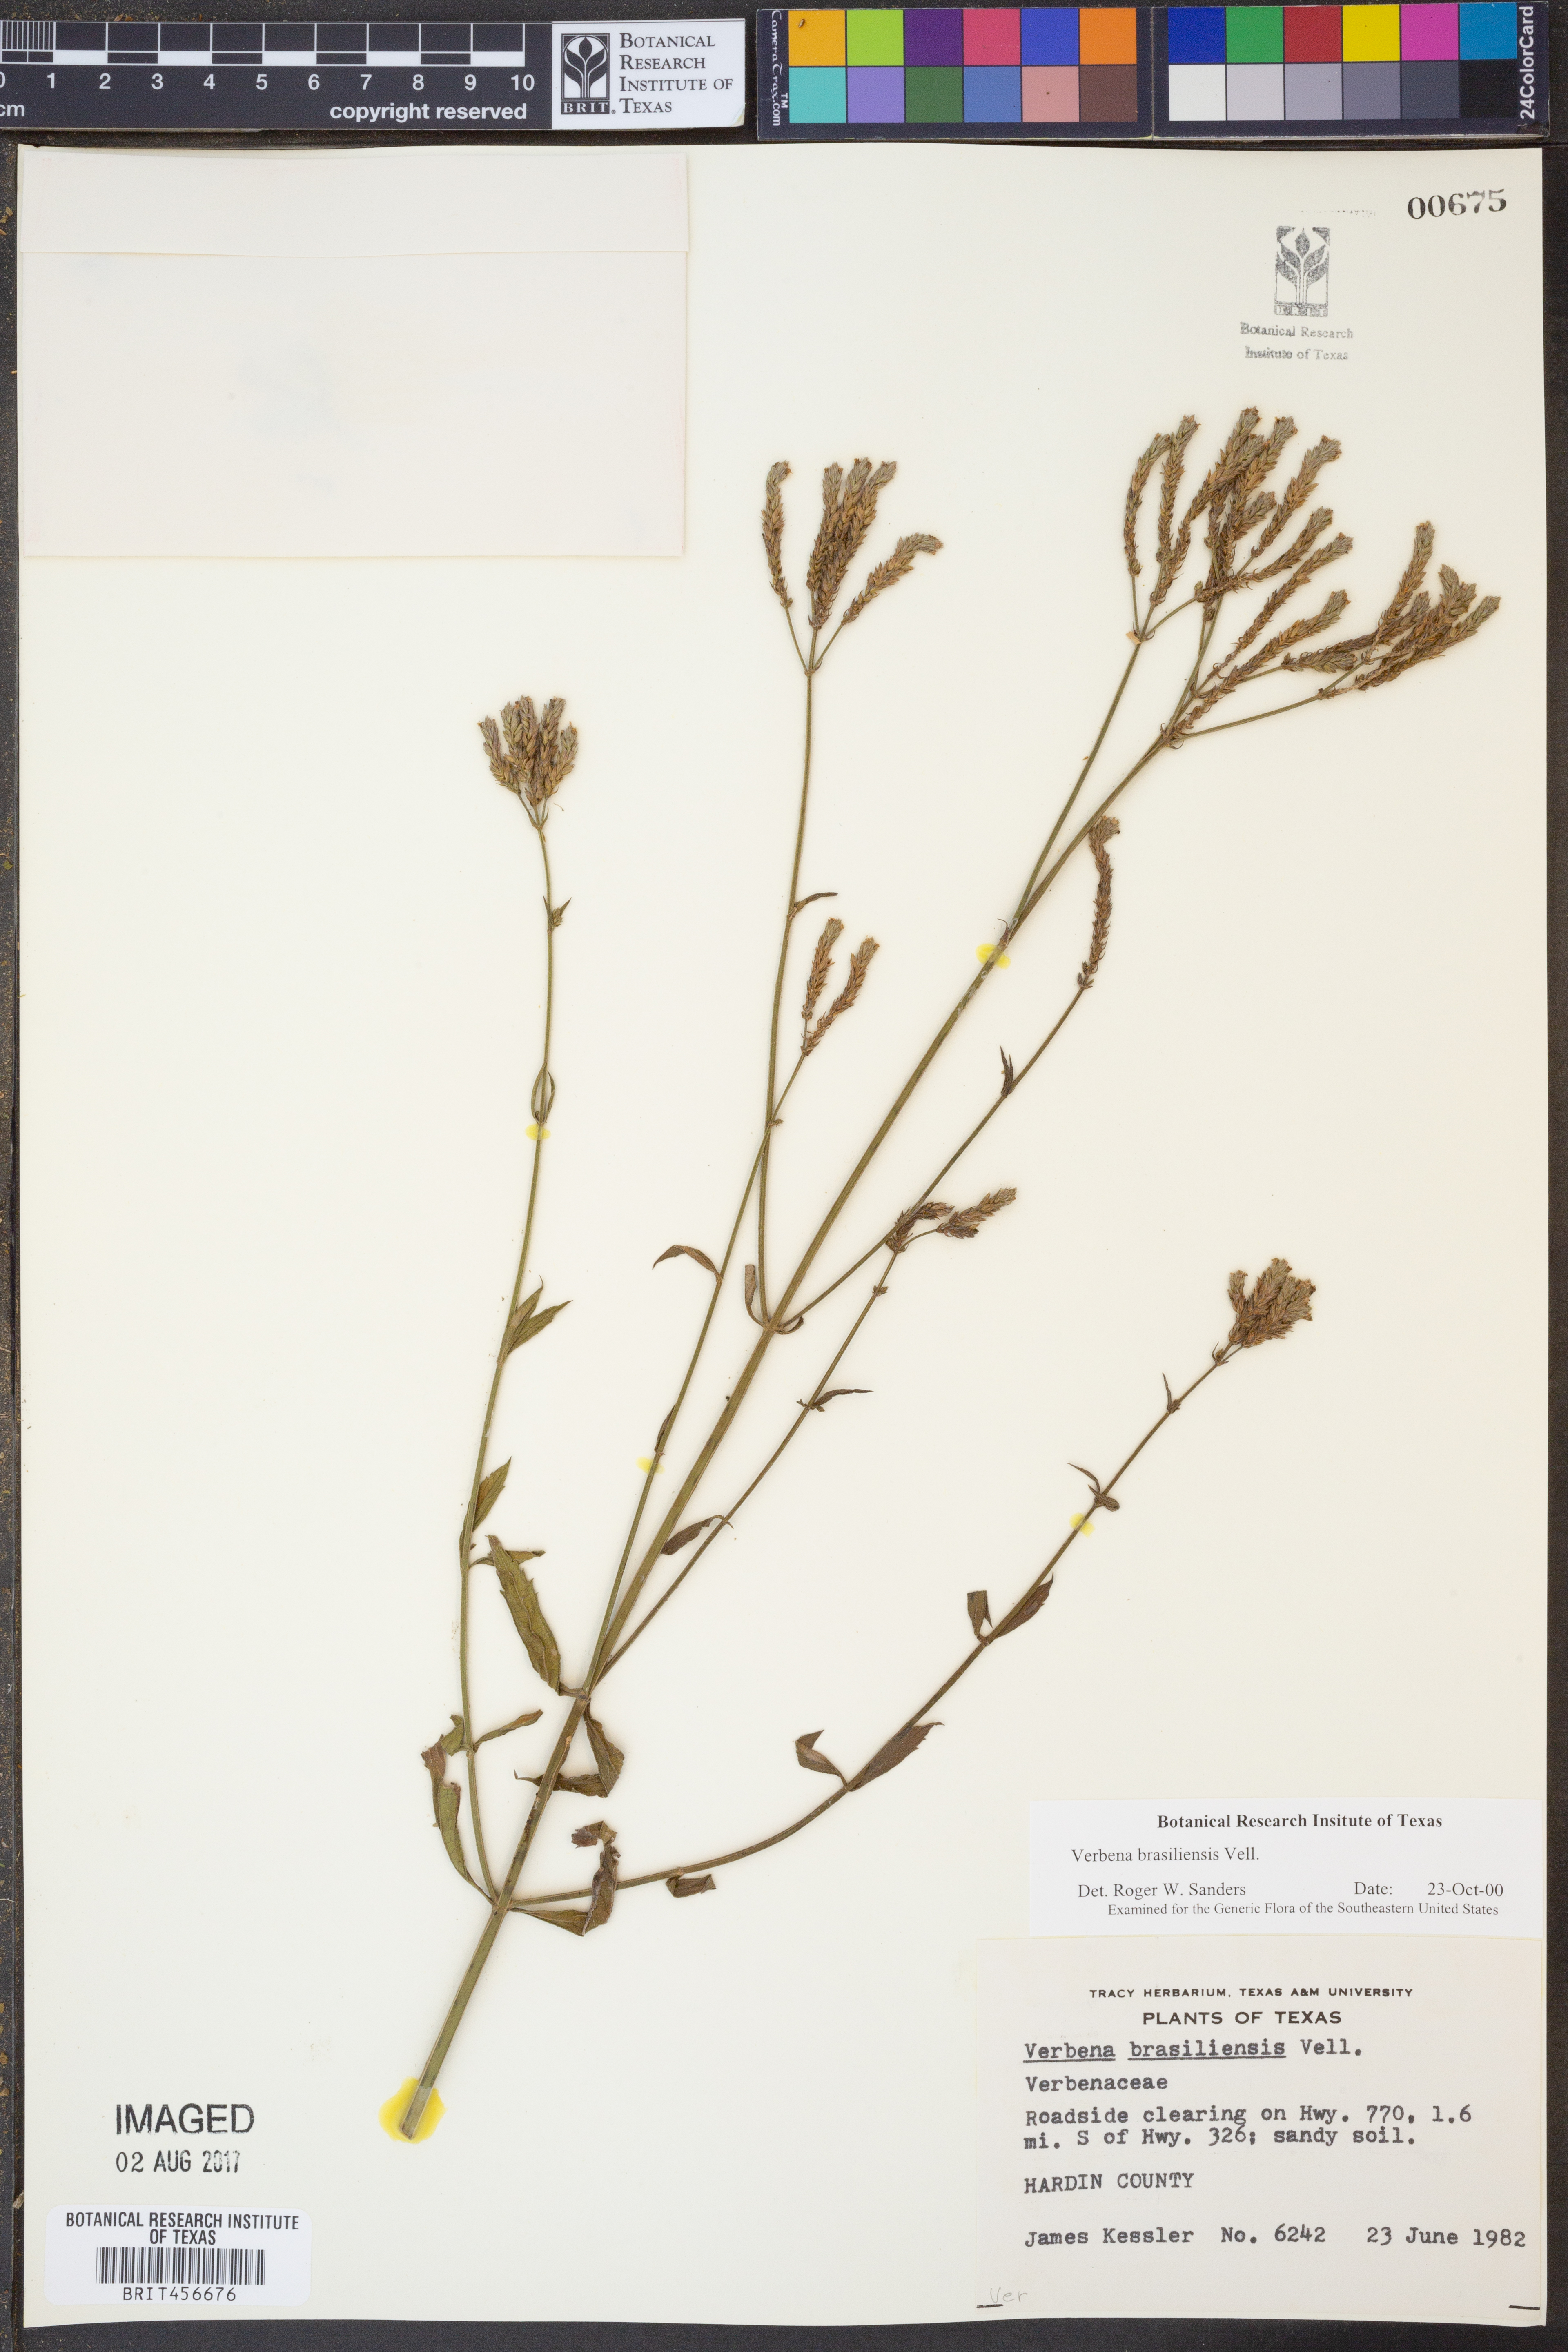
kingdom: Plantae
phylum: Tracheophyta
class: Magnoliopsida
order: Lamiales
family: Verbenaceae
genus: Verbena
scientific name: Verbena brasiliensis
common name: Brazilian vervain
